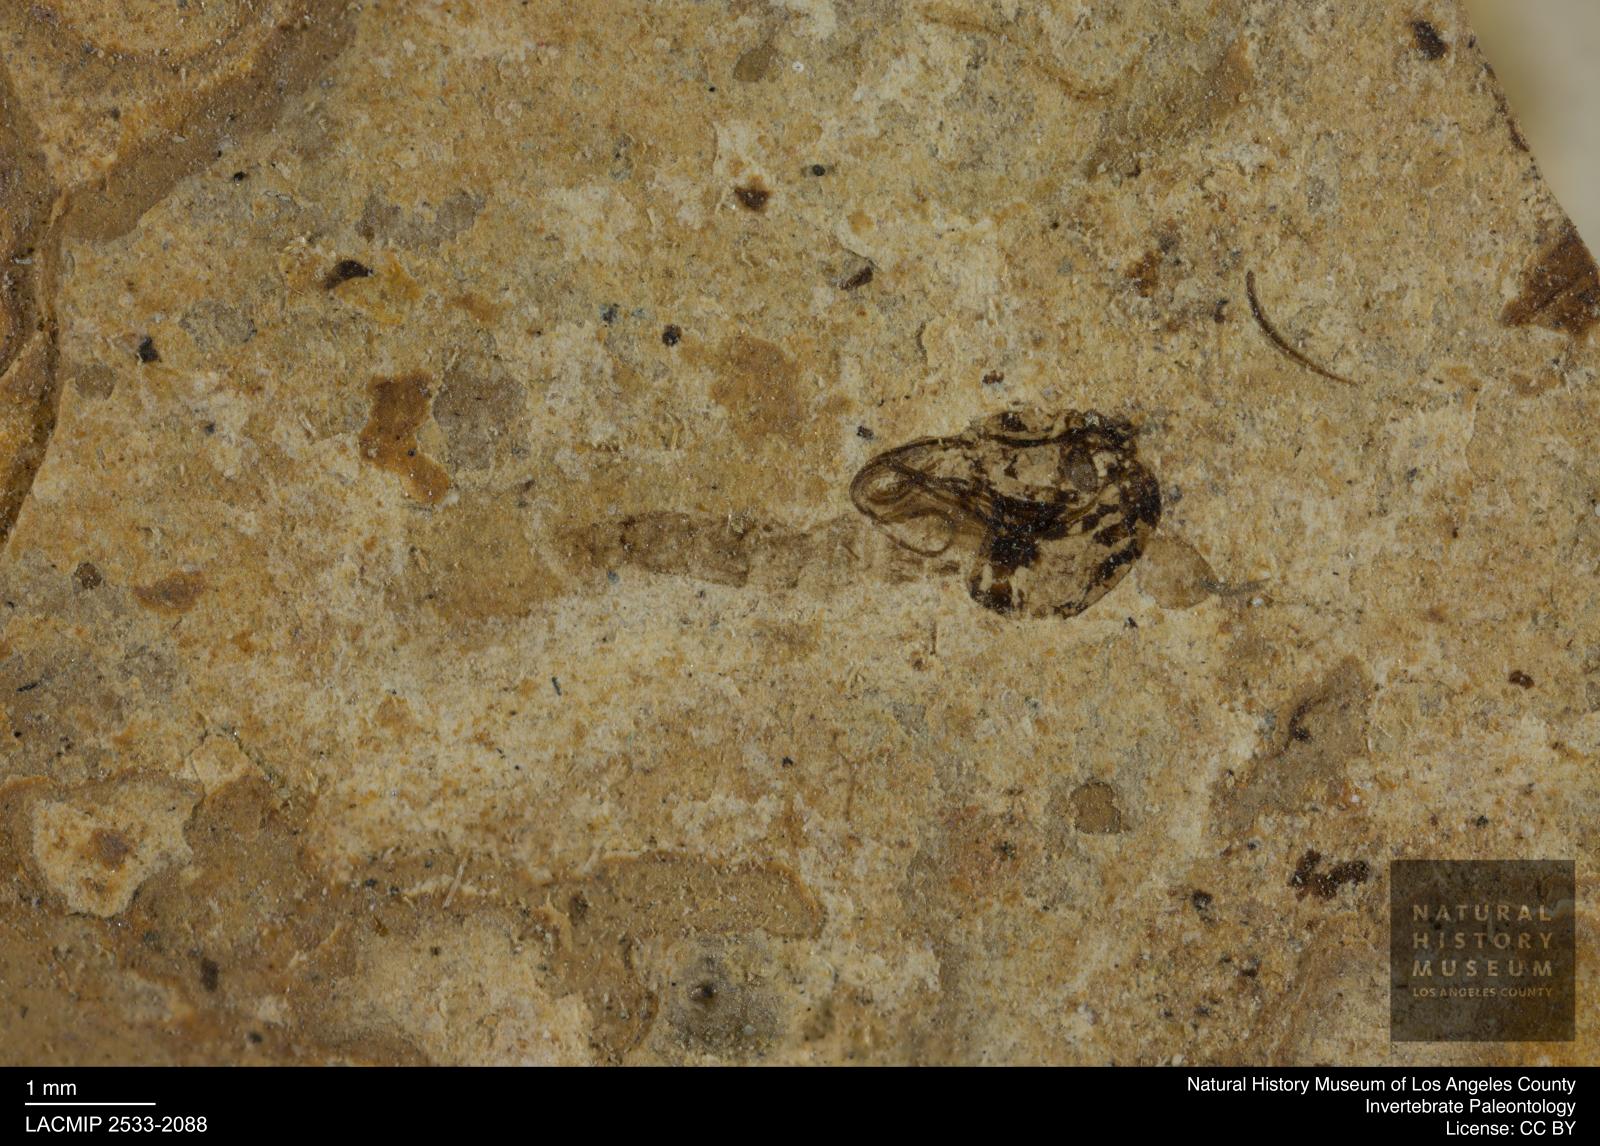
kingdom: Animalia
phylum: Arthropoda
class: Insecta
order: Diptera
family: Chironomidae
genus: Pelopiina
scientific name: Pelopiina
